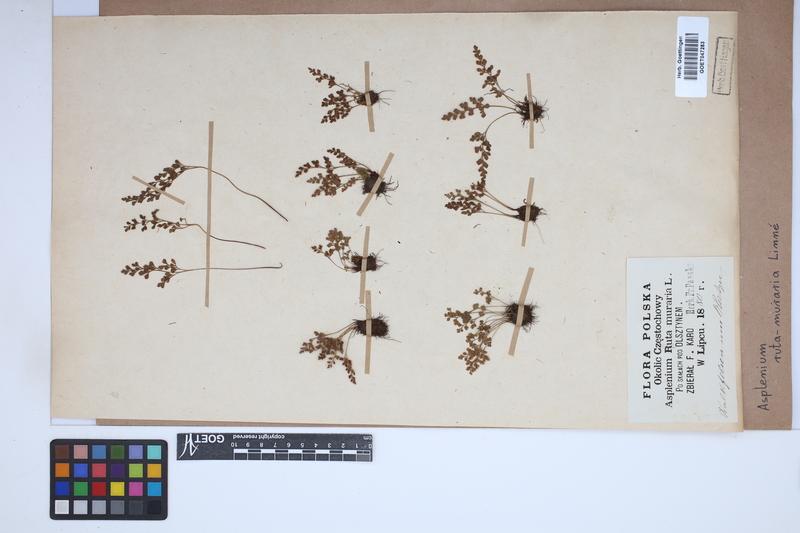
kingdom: Plantae
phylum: Tracheophyta
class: Polypodiopsida
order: Polypodiales
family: Aspleniaceae
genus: Asplenium
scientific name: Asplenium ruta-muraria
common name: Wall-rue
